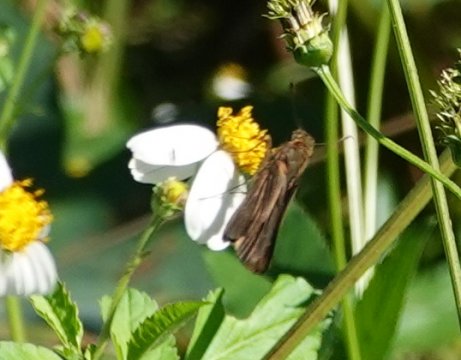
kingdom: Animalia
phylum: Arthropoda
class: Insecta
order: Lepidoptera
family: Hesperiidae
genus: Panoquina
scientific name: Panoquina ocola
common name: Ocola Skipper
